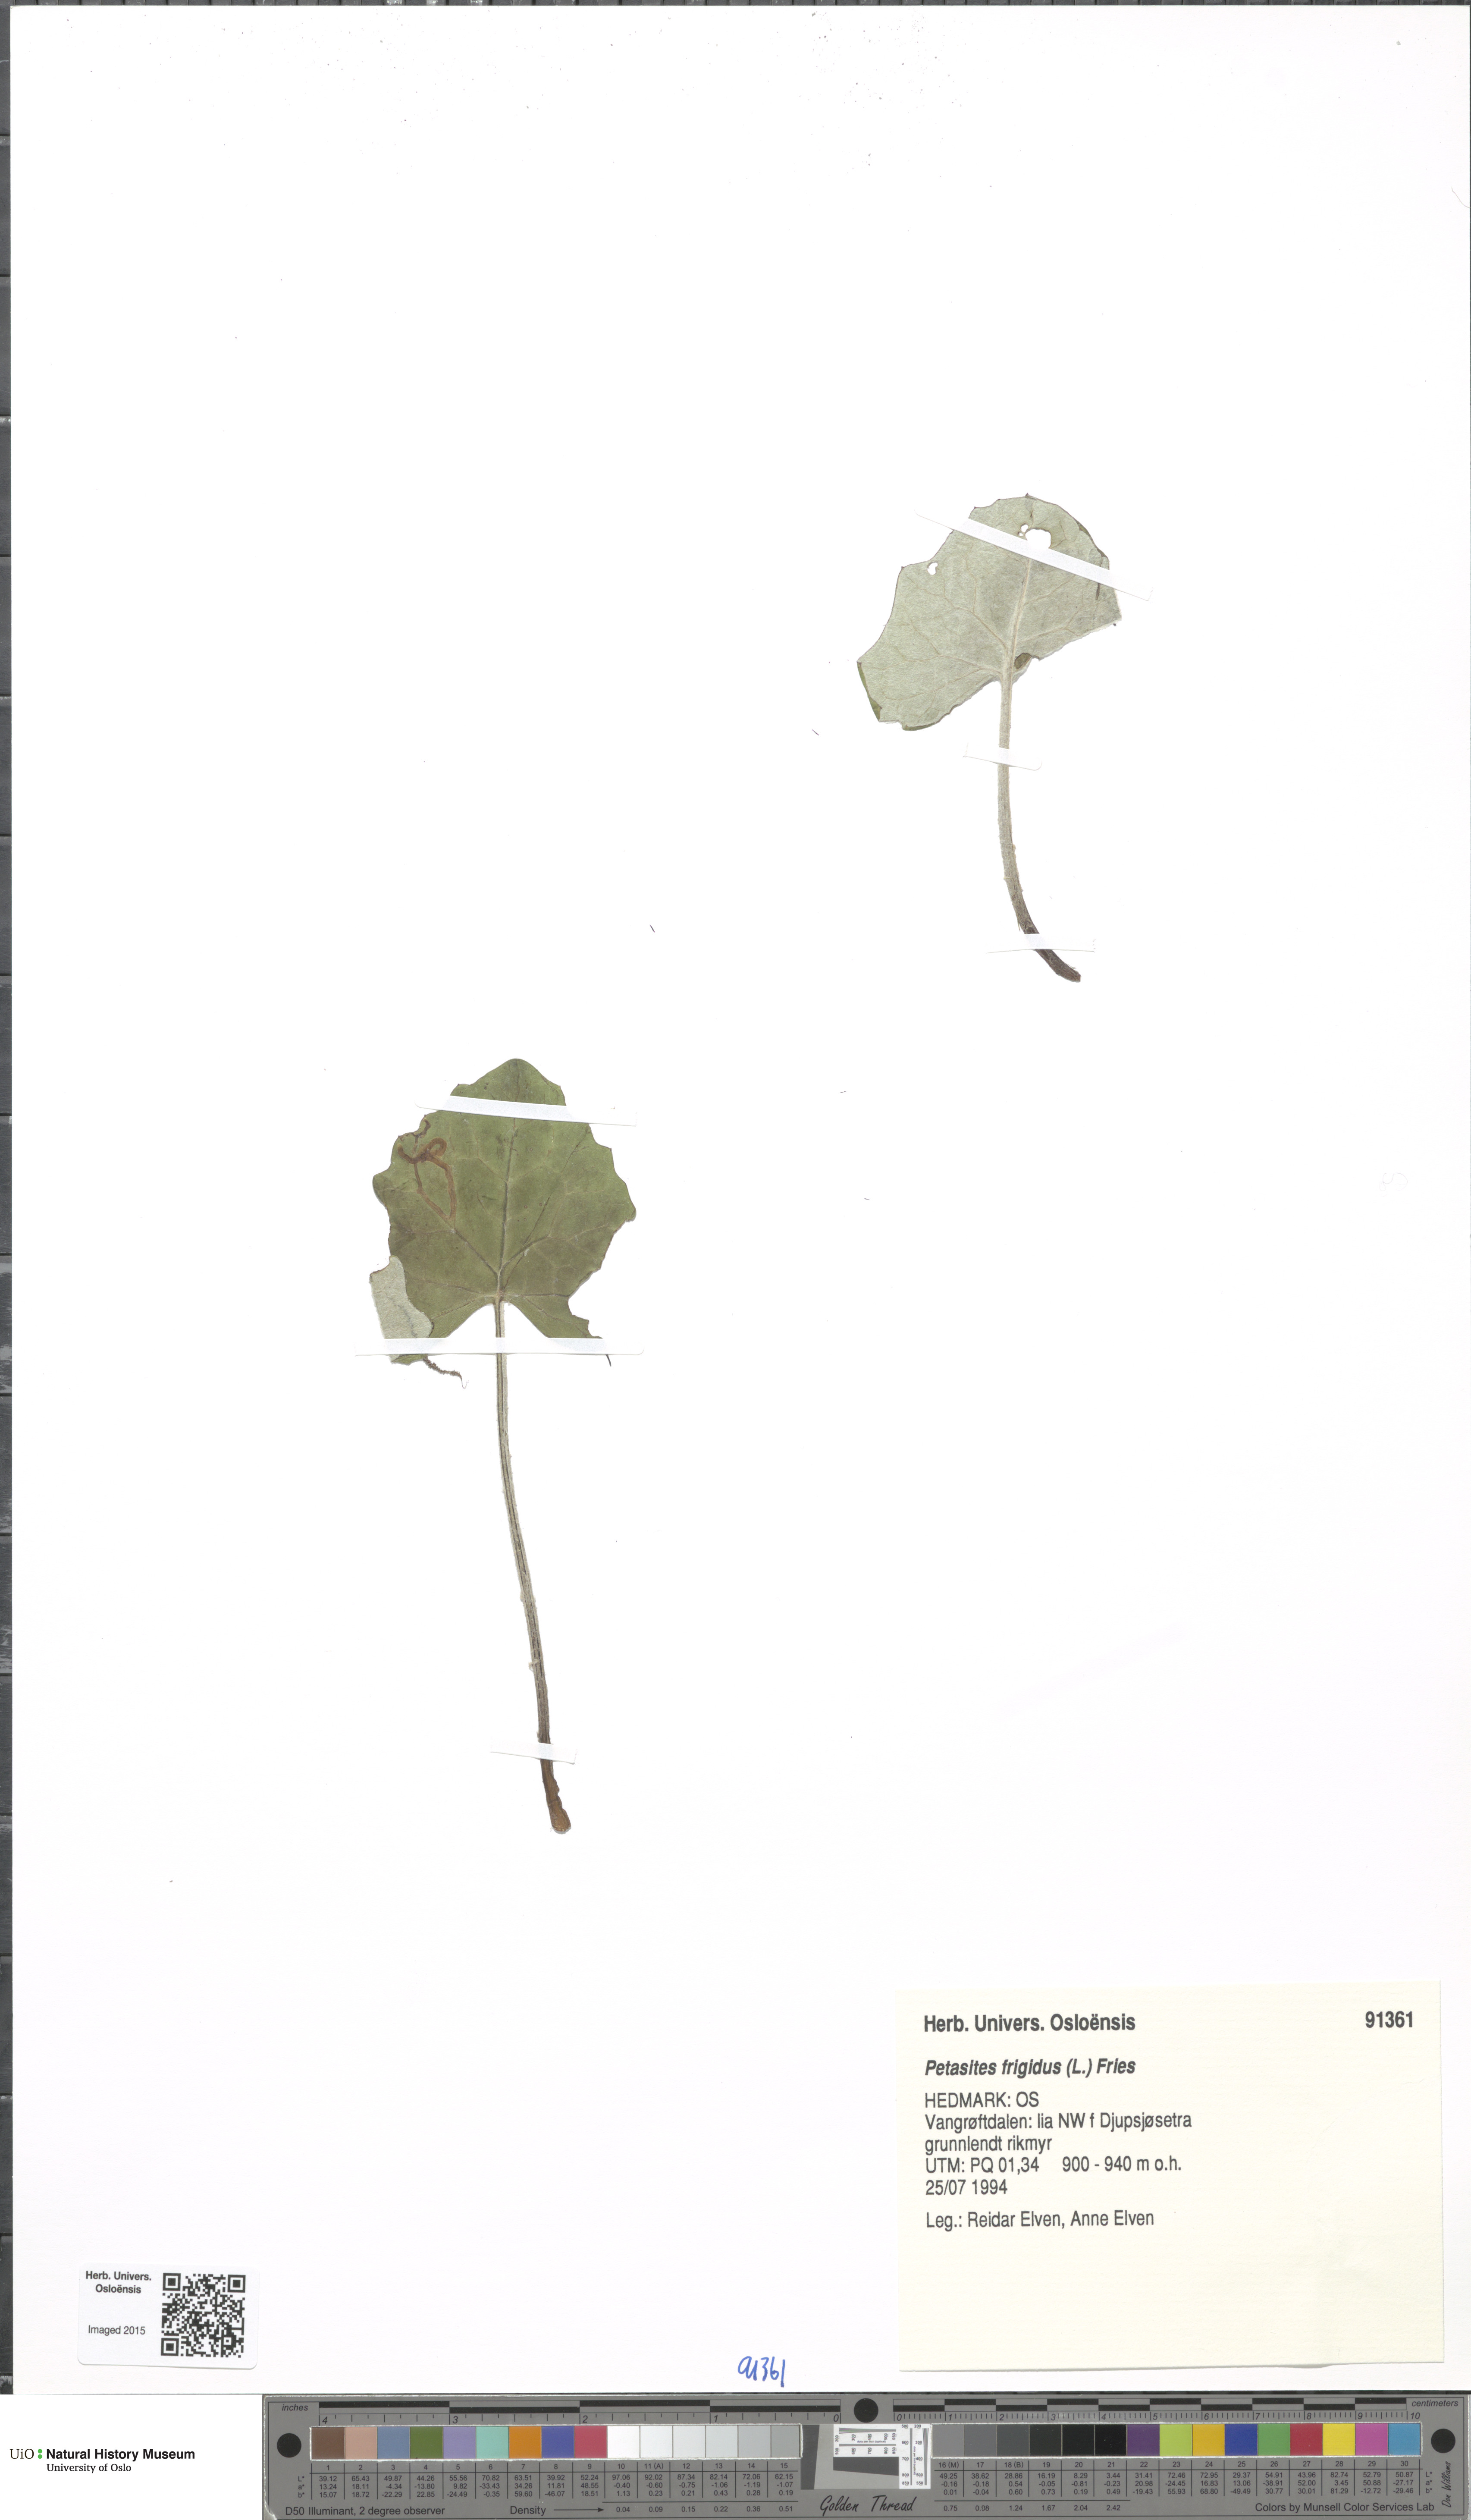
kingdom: Plantae
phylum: Tracheophyta
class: Magnoliopsida
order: Asterales
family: Asteraceae
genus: Petasites
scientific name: Petasites frigidus
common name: Arctic butterbur
